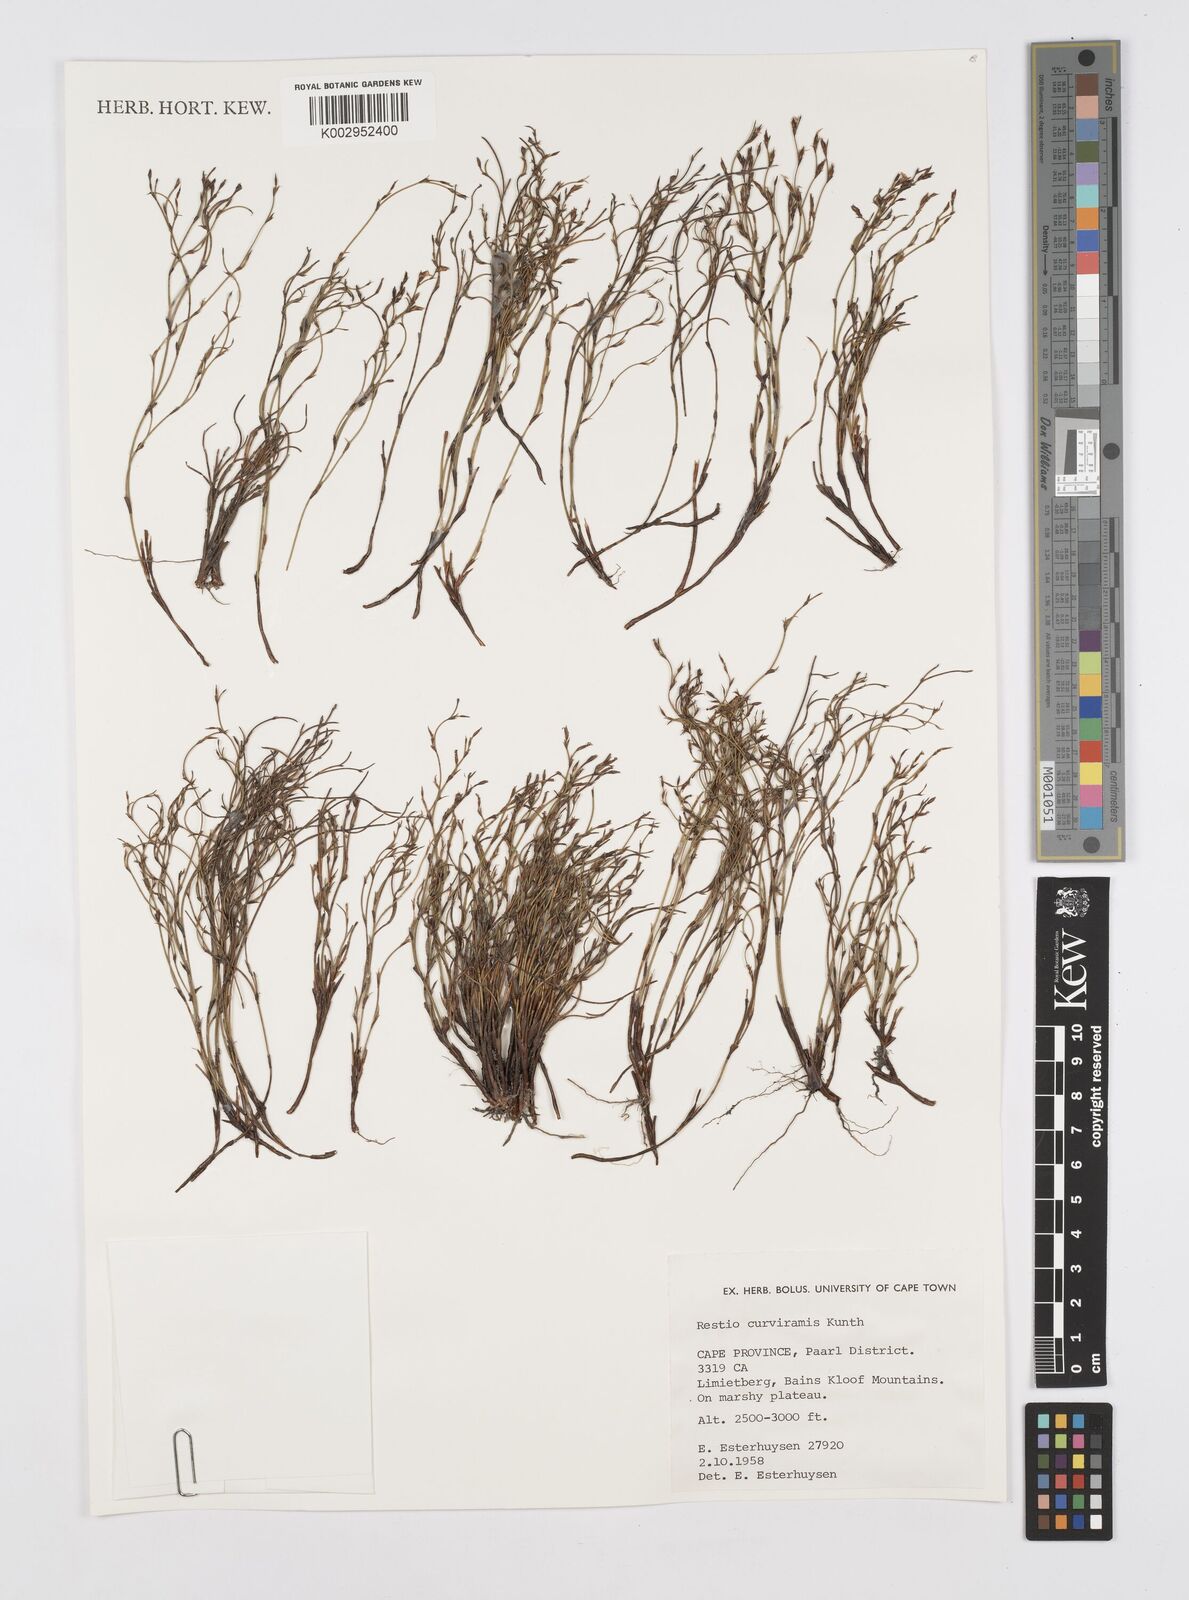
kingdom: Plantae
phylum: Tracheophyta
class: Liliopsida
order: Poales
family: Restionaceae
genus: Restio
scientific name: Restio curviramis
